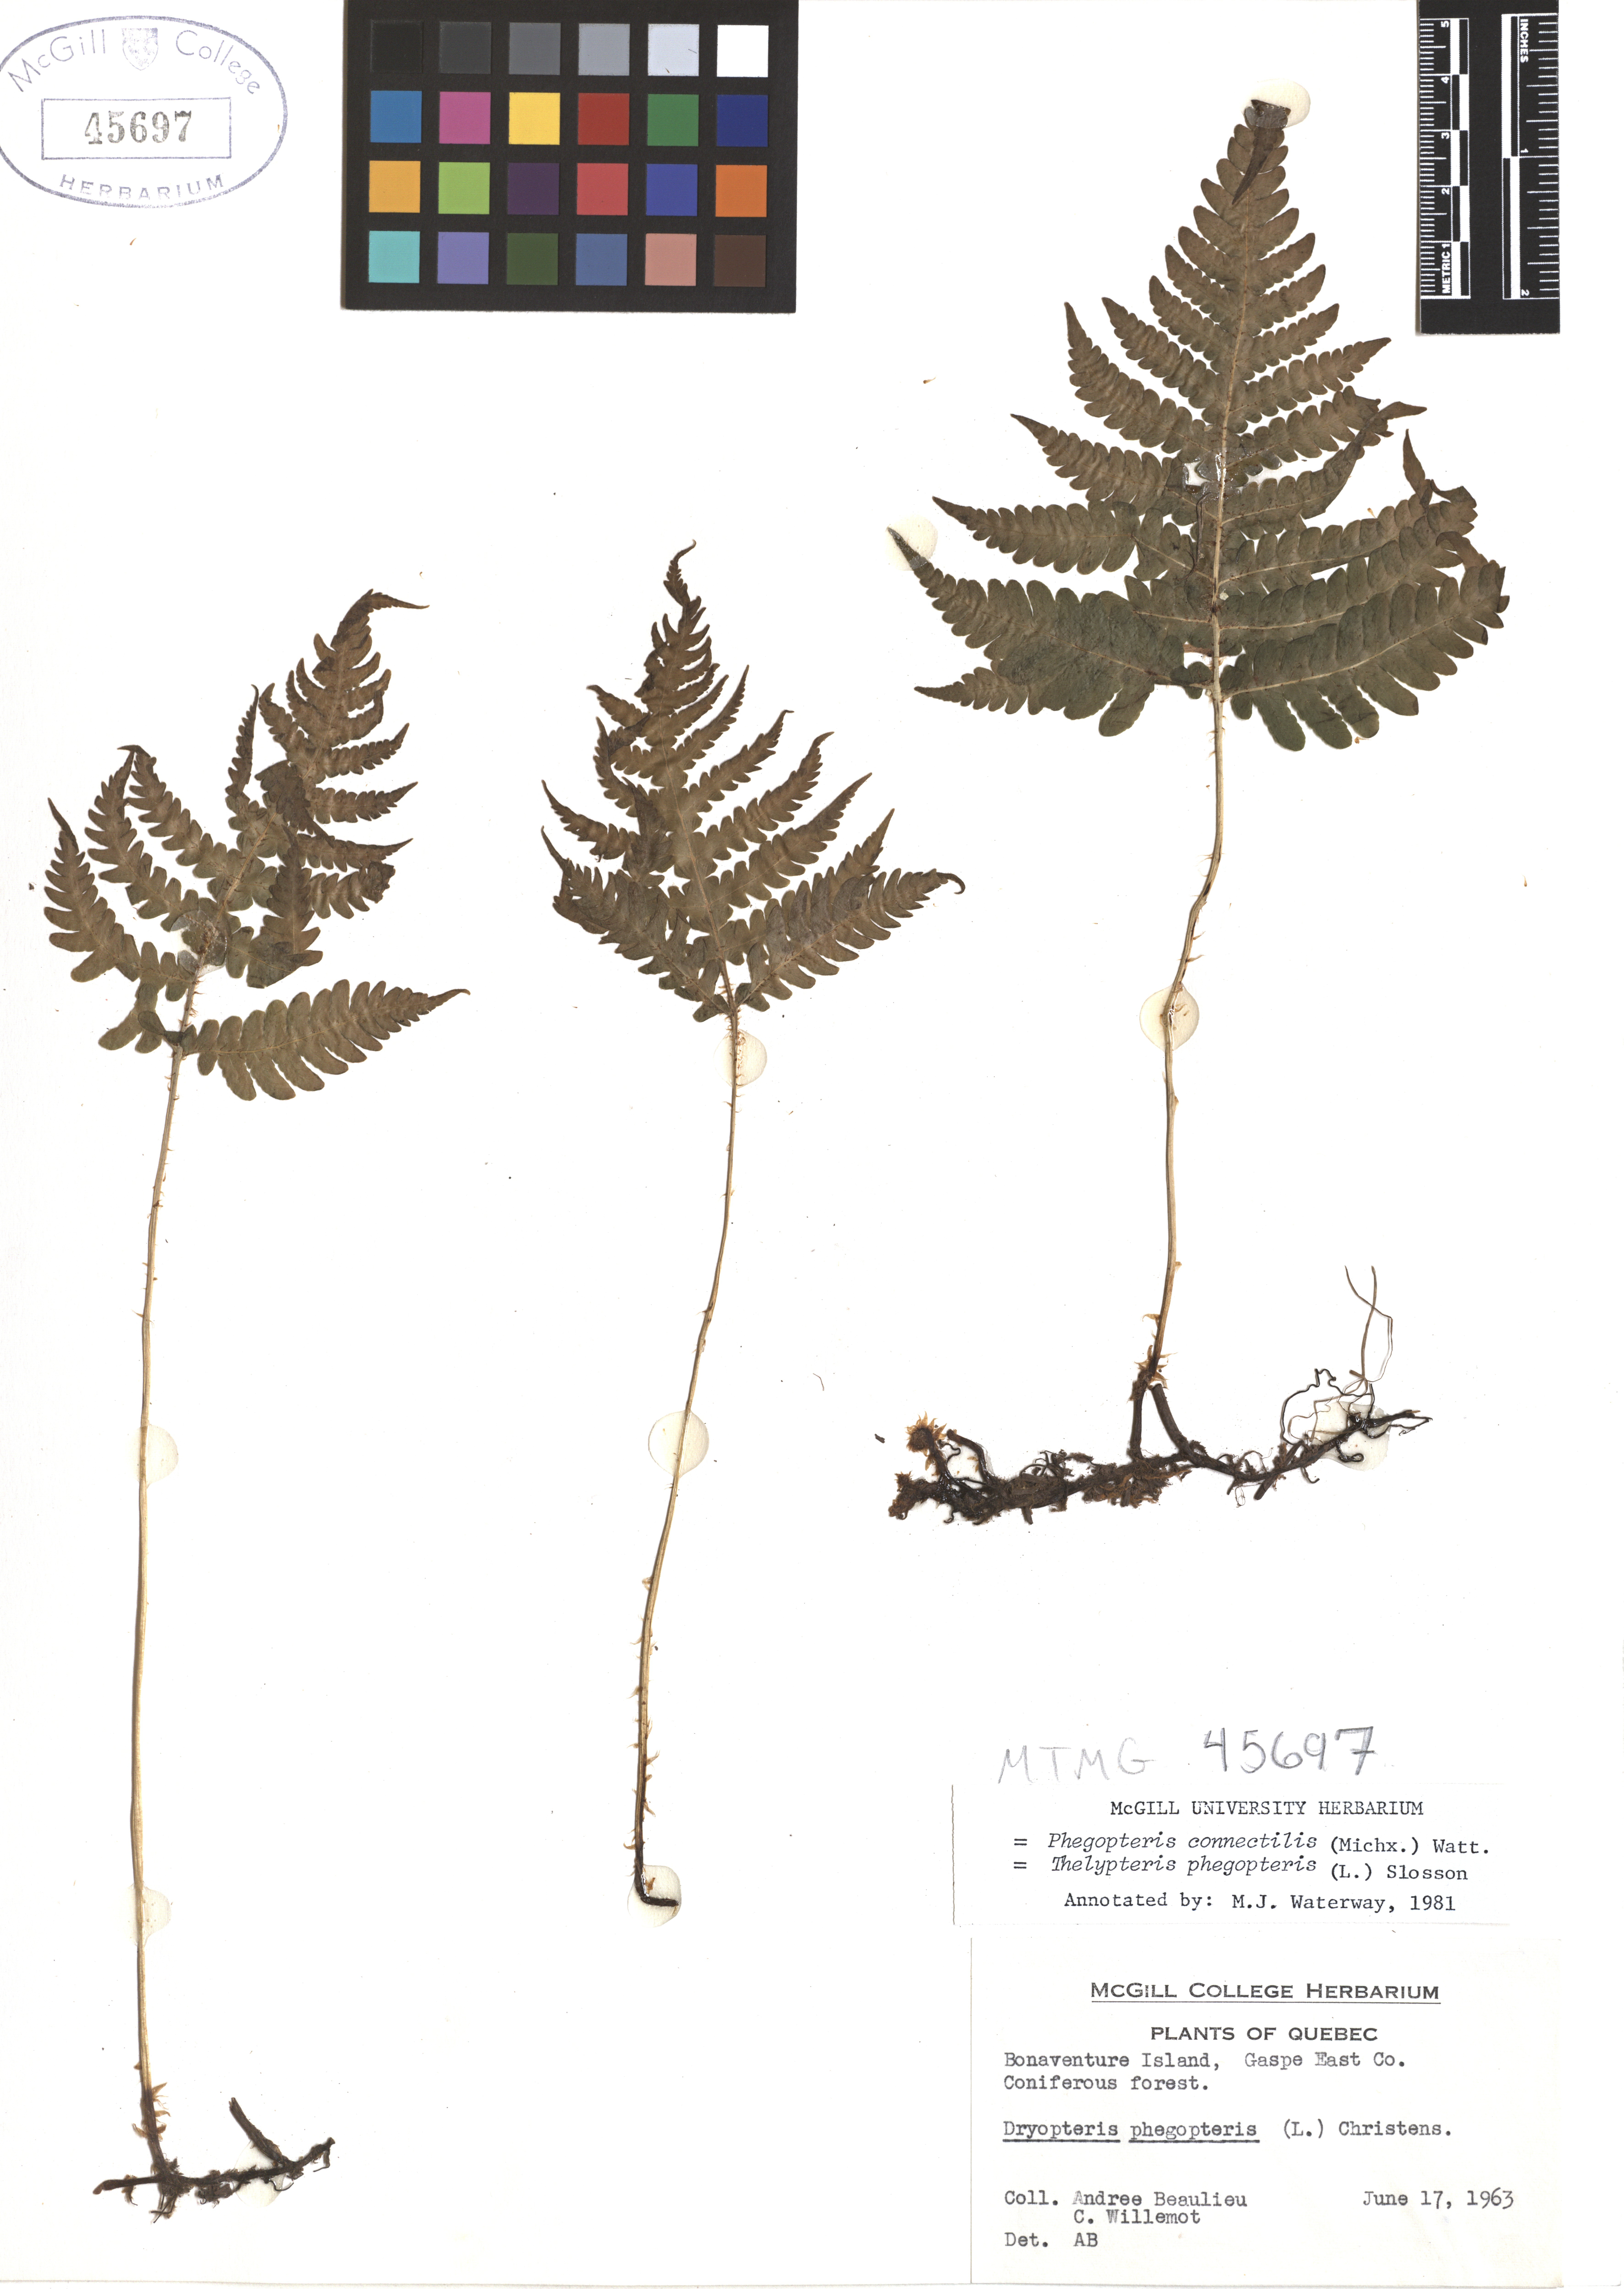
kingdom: Plantae
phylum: Tracheophyta
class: Polypodiopsida
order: Polypodiales
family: Thelypteridaceae
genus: Phegopteris
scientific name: Phegopteris connectilis
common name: Beech fern
